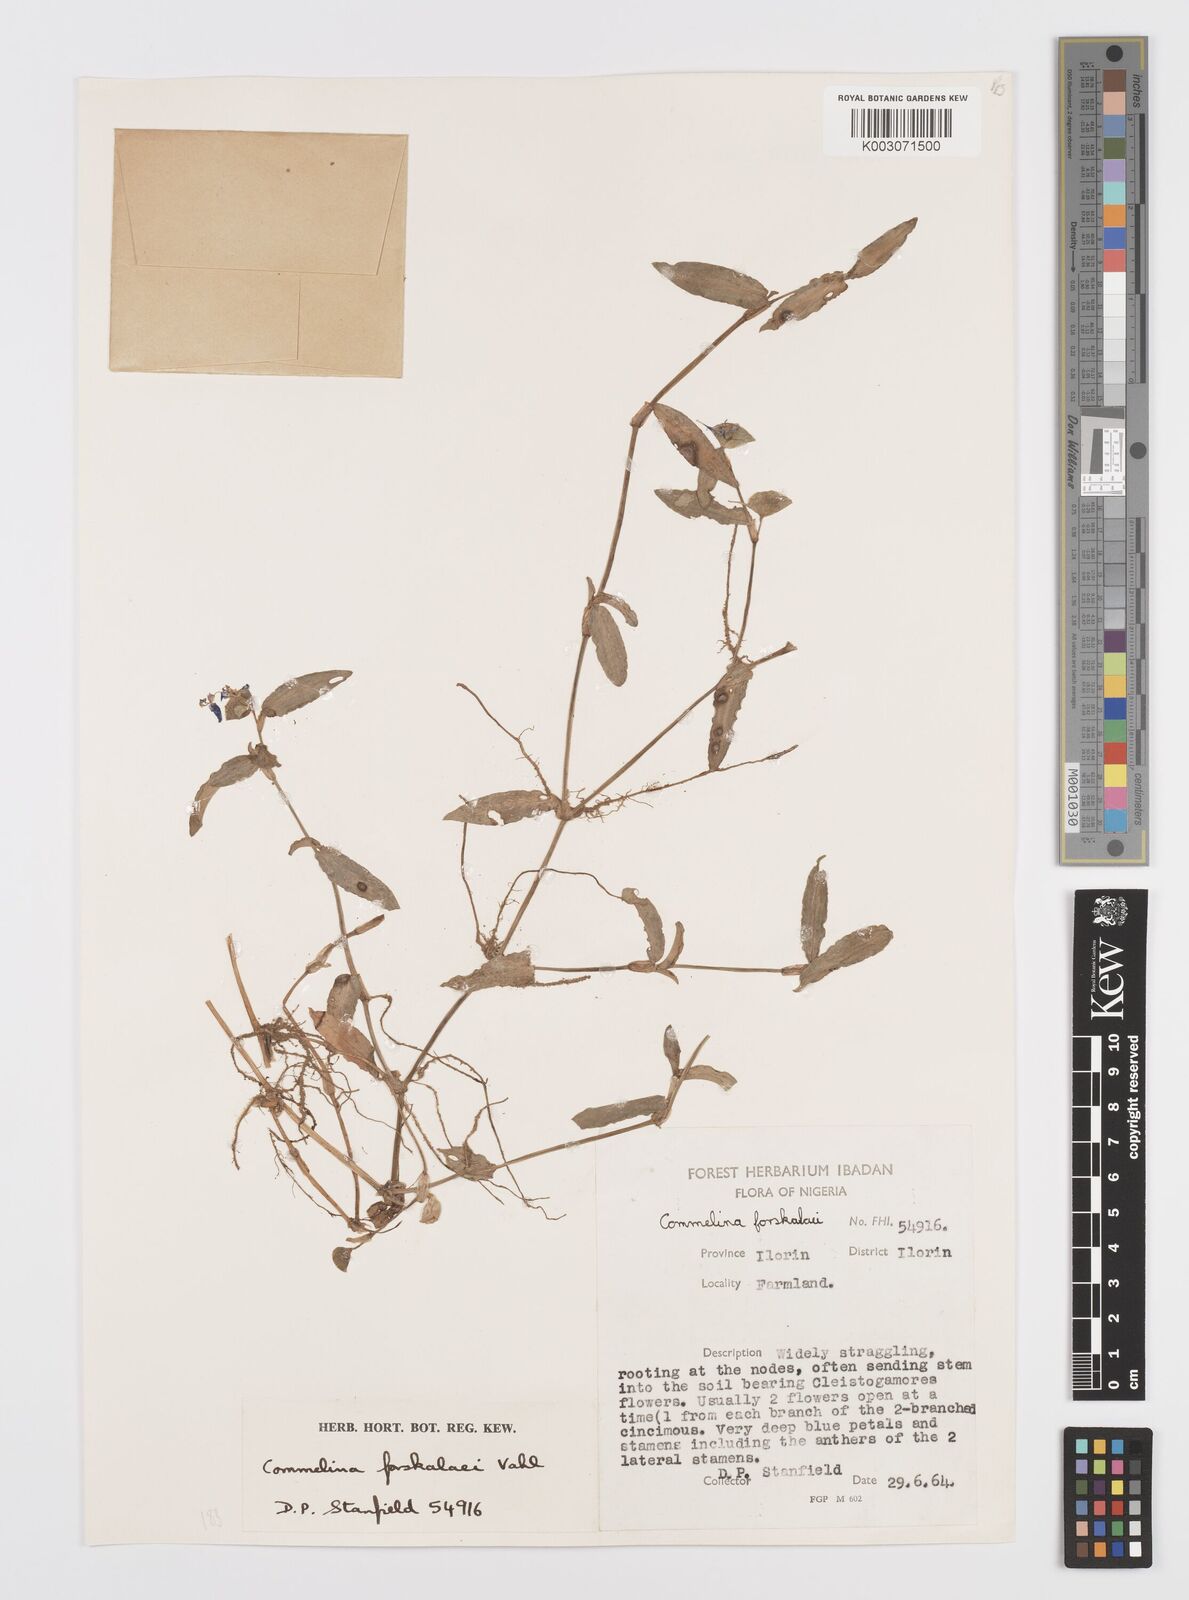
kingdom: Plantae
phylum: Tracheophyta
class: Liliopsida
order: Commelinales
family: Commelinaceae
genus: Commelina
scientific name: Commelina forskaolii
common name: Rat's ear
